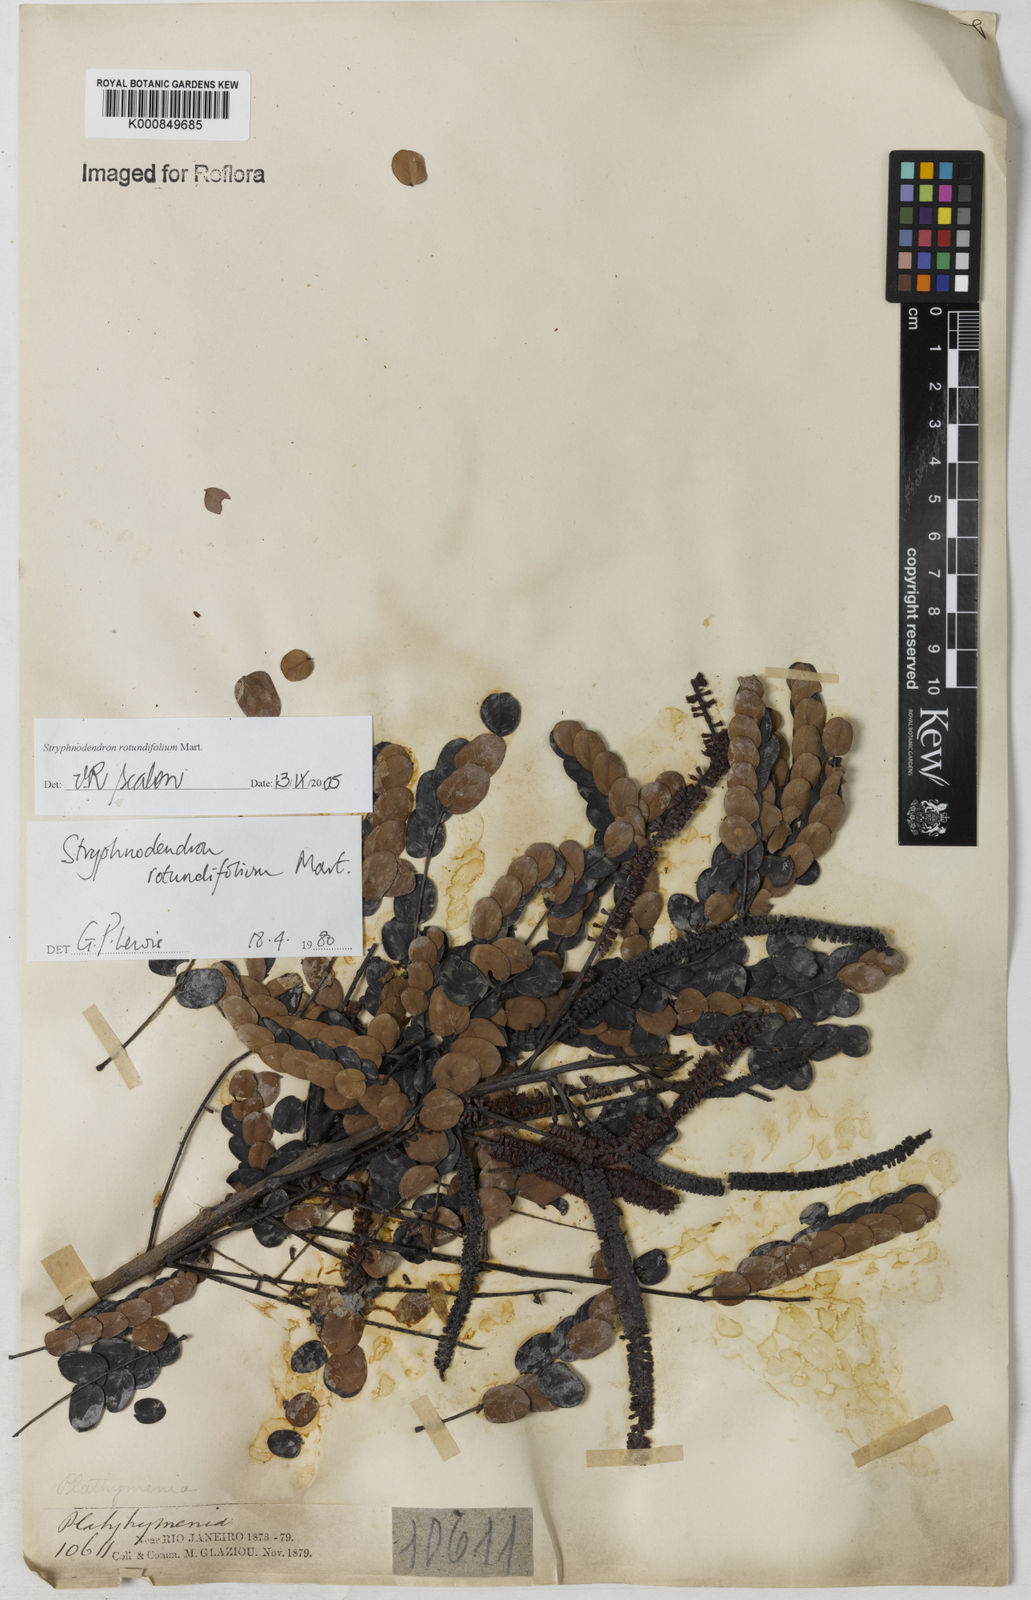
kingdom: Plantae
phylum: Tracheophyta
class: Magnoliopsida
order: Fabales
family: Fabaceae
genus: Stryphnodendron
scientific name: Stryphnodendron rotundifolium
